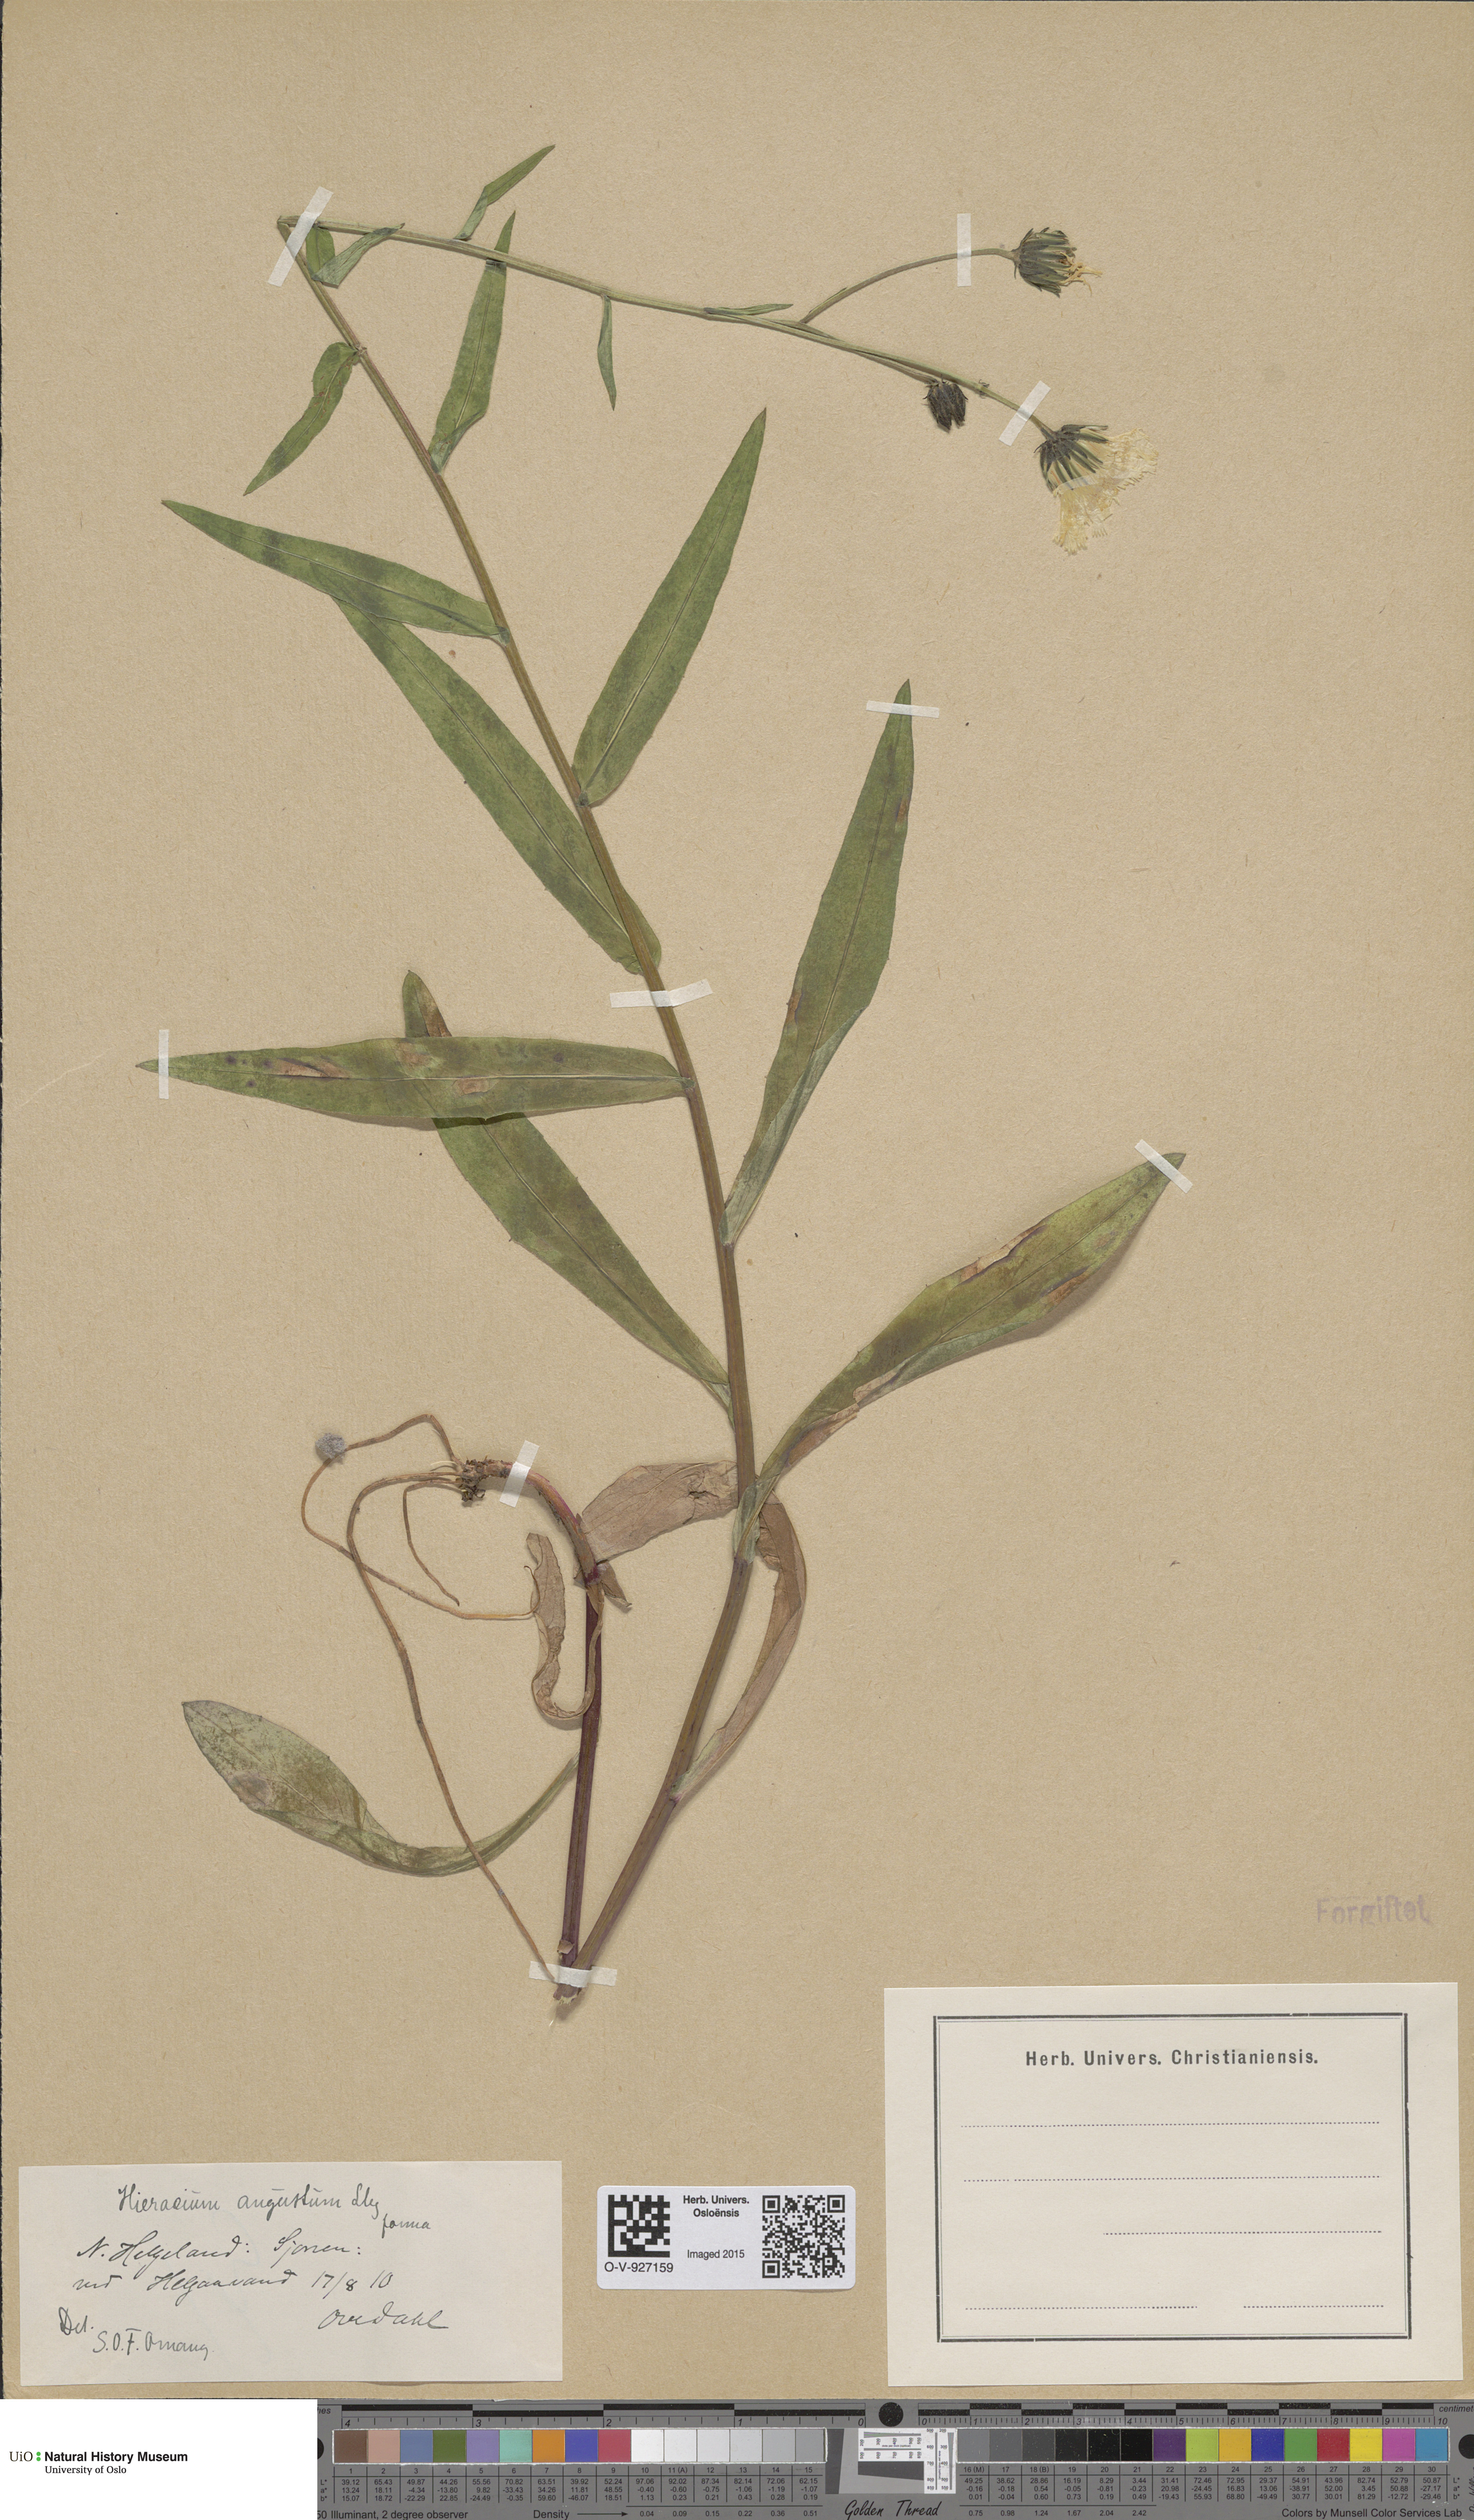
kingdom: Plantae
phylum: Tracheophyta
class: Magnoliopsida
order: Asterales
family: Asteraceae
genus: Hieracium
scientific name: Hieracium angustum
